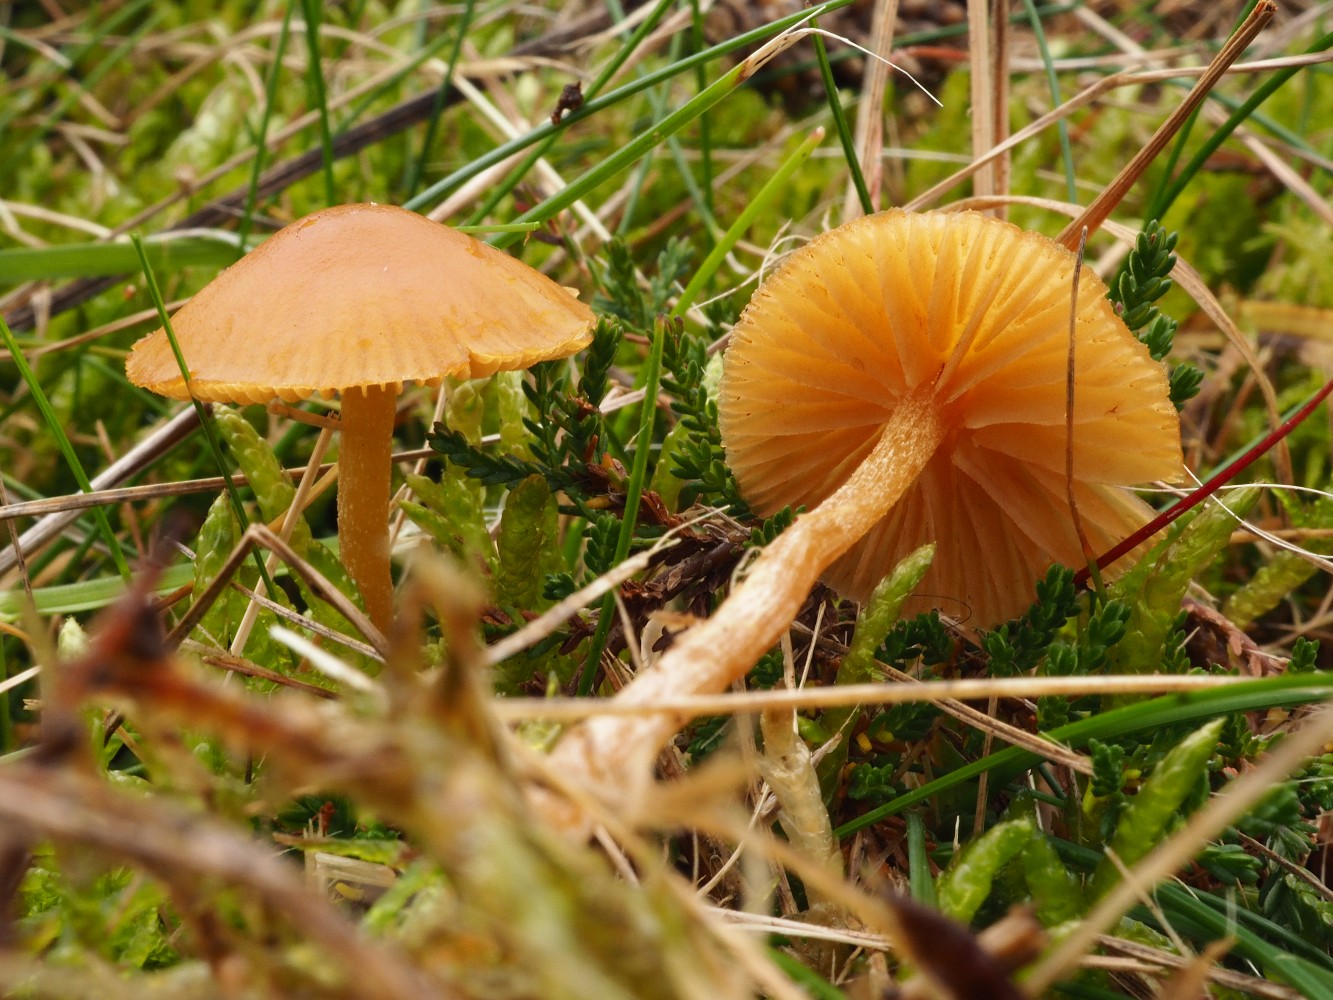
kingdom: Fungi
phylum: Basidiomycota
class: Agaricomycetes
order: Agaricales
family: Hymenogastraceae
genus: Galerina
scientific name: Galerina graminea
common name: plæne-hjelmhat
